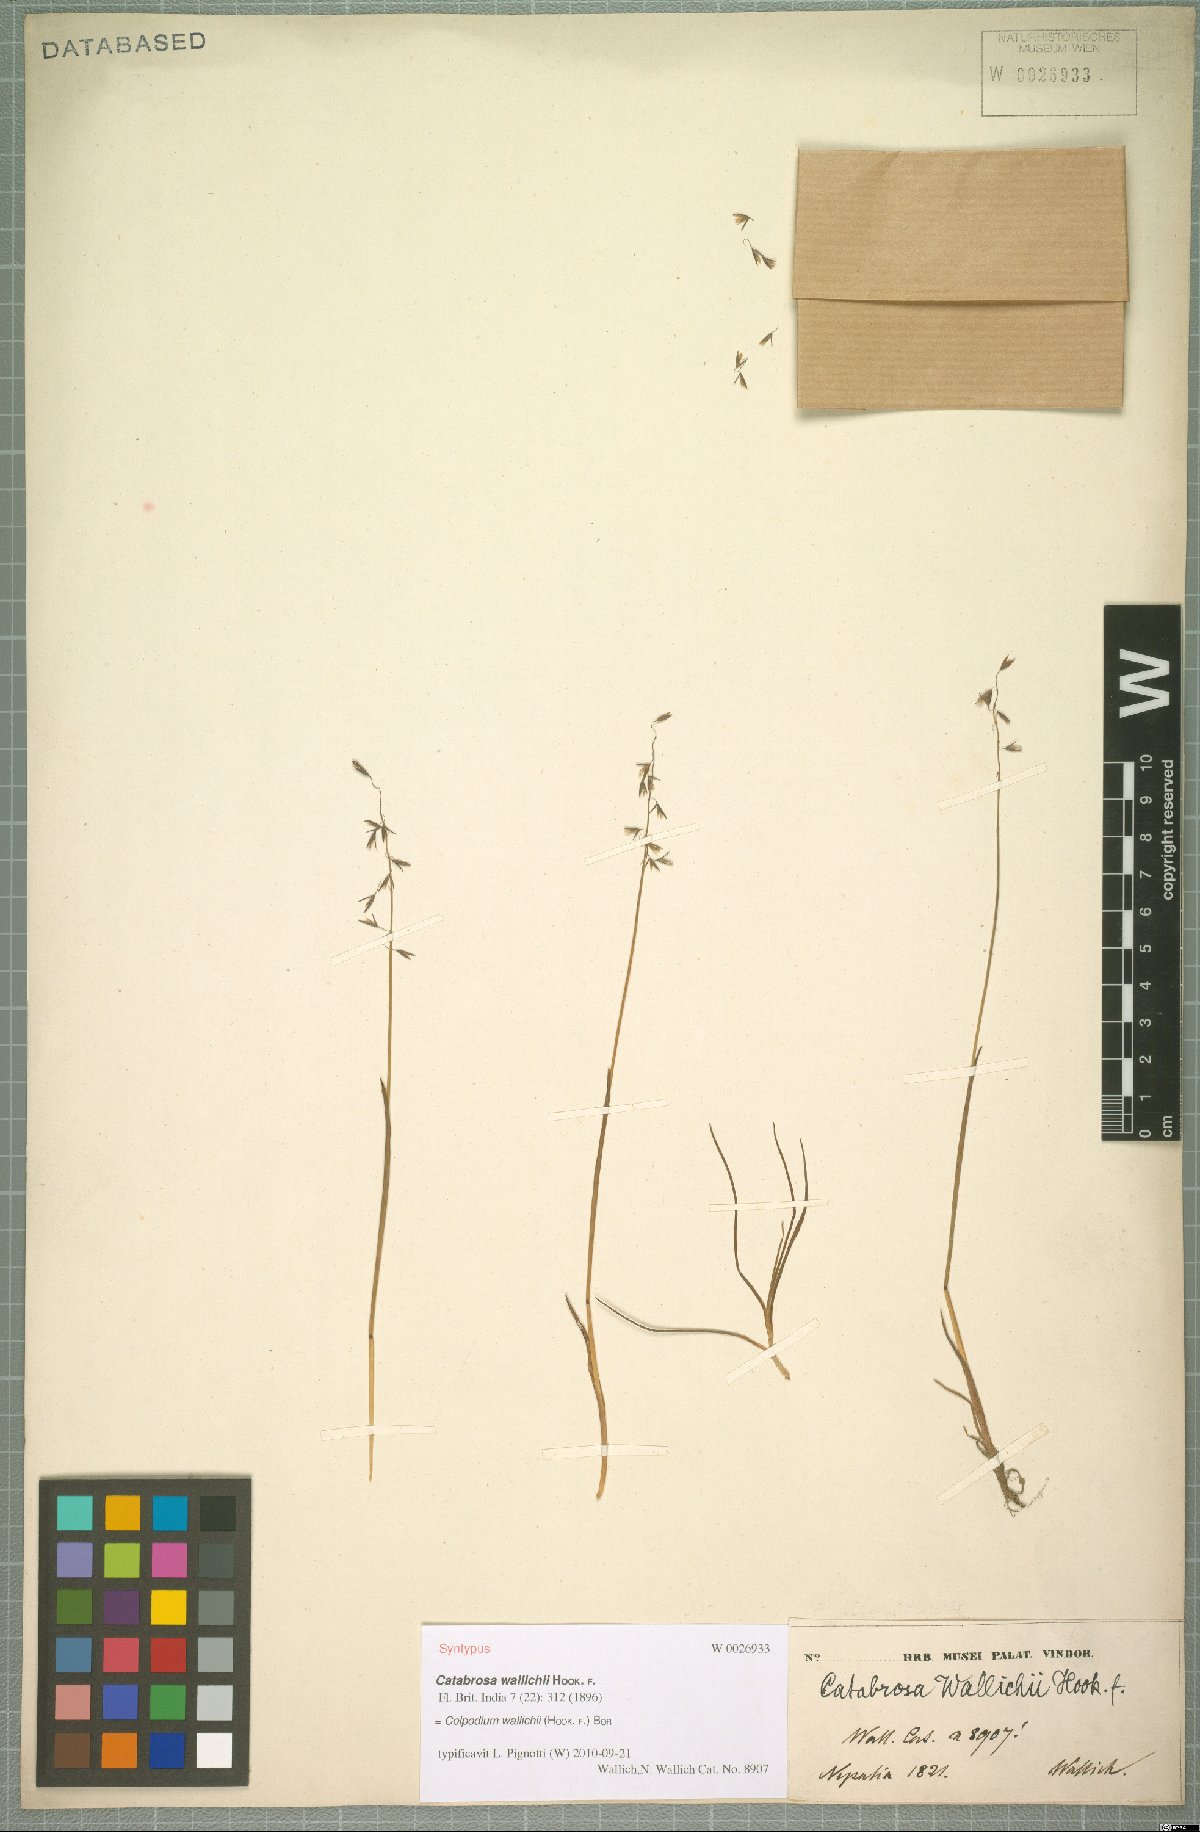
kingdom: Plantae
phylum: Tracheophyta
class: Liliopsida
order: Poales
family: Poaceae
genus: Paracolpodium
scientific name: Paracolpodium wallichii
